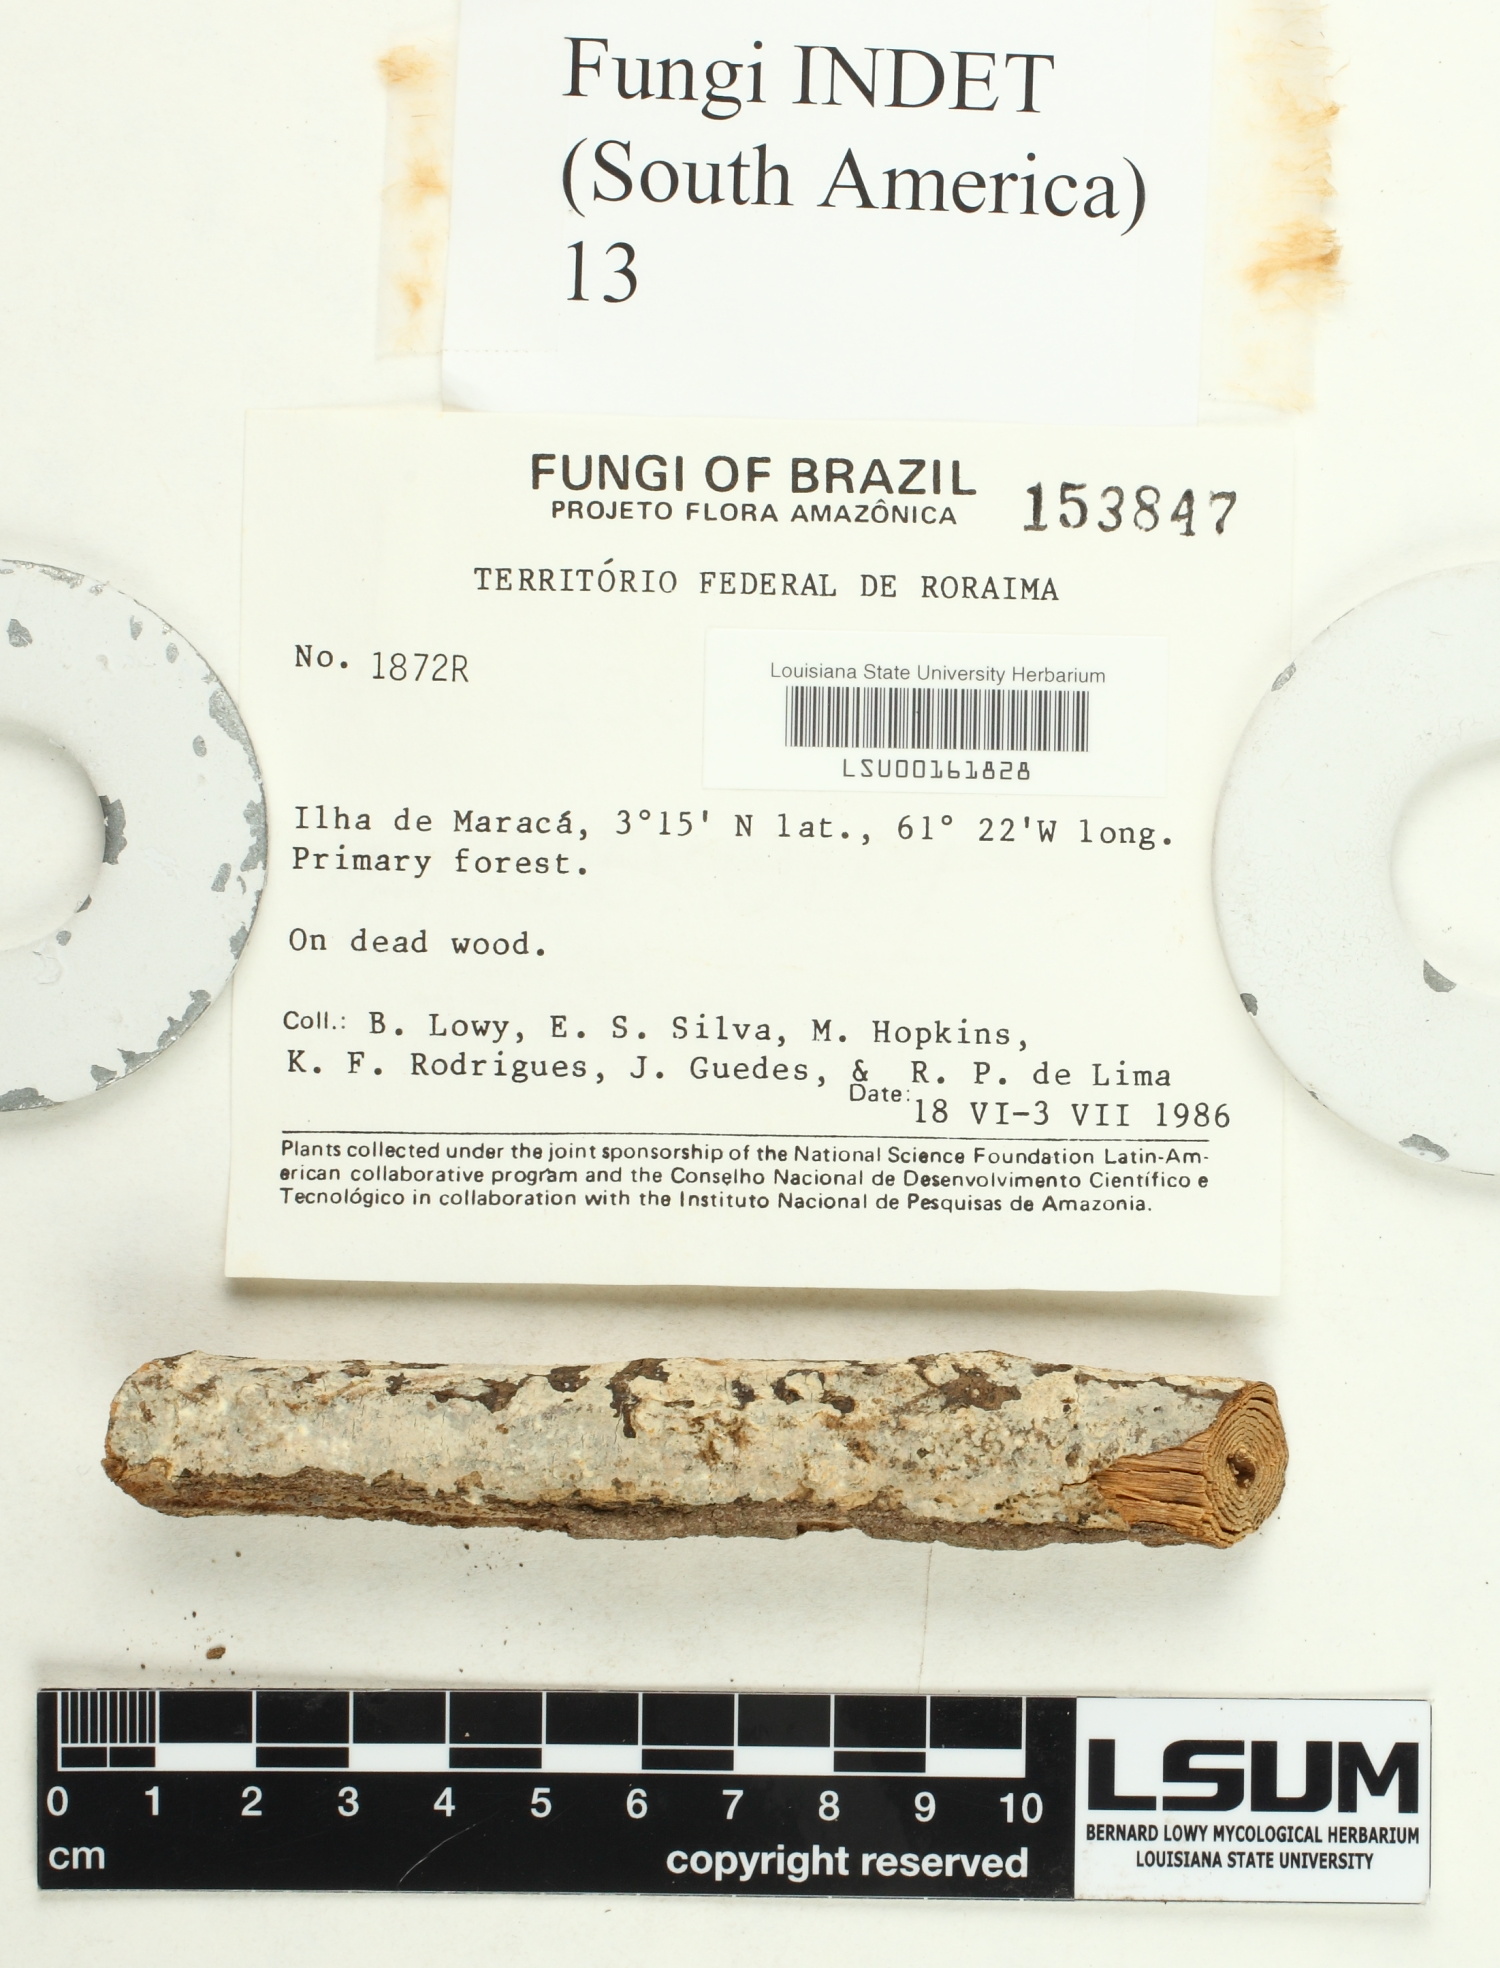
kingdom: Fungi
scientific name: Fungi
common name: Fungi
